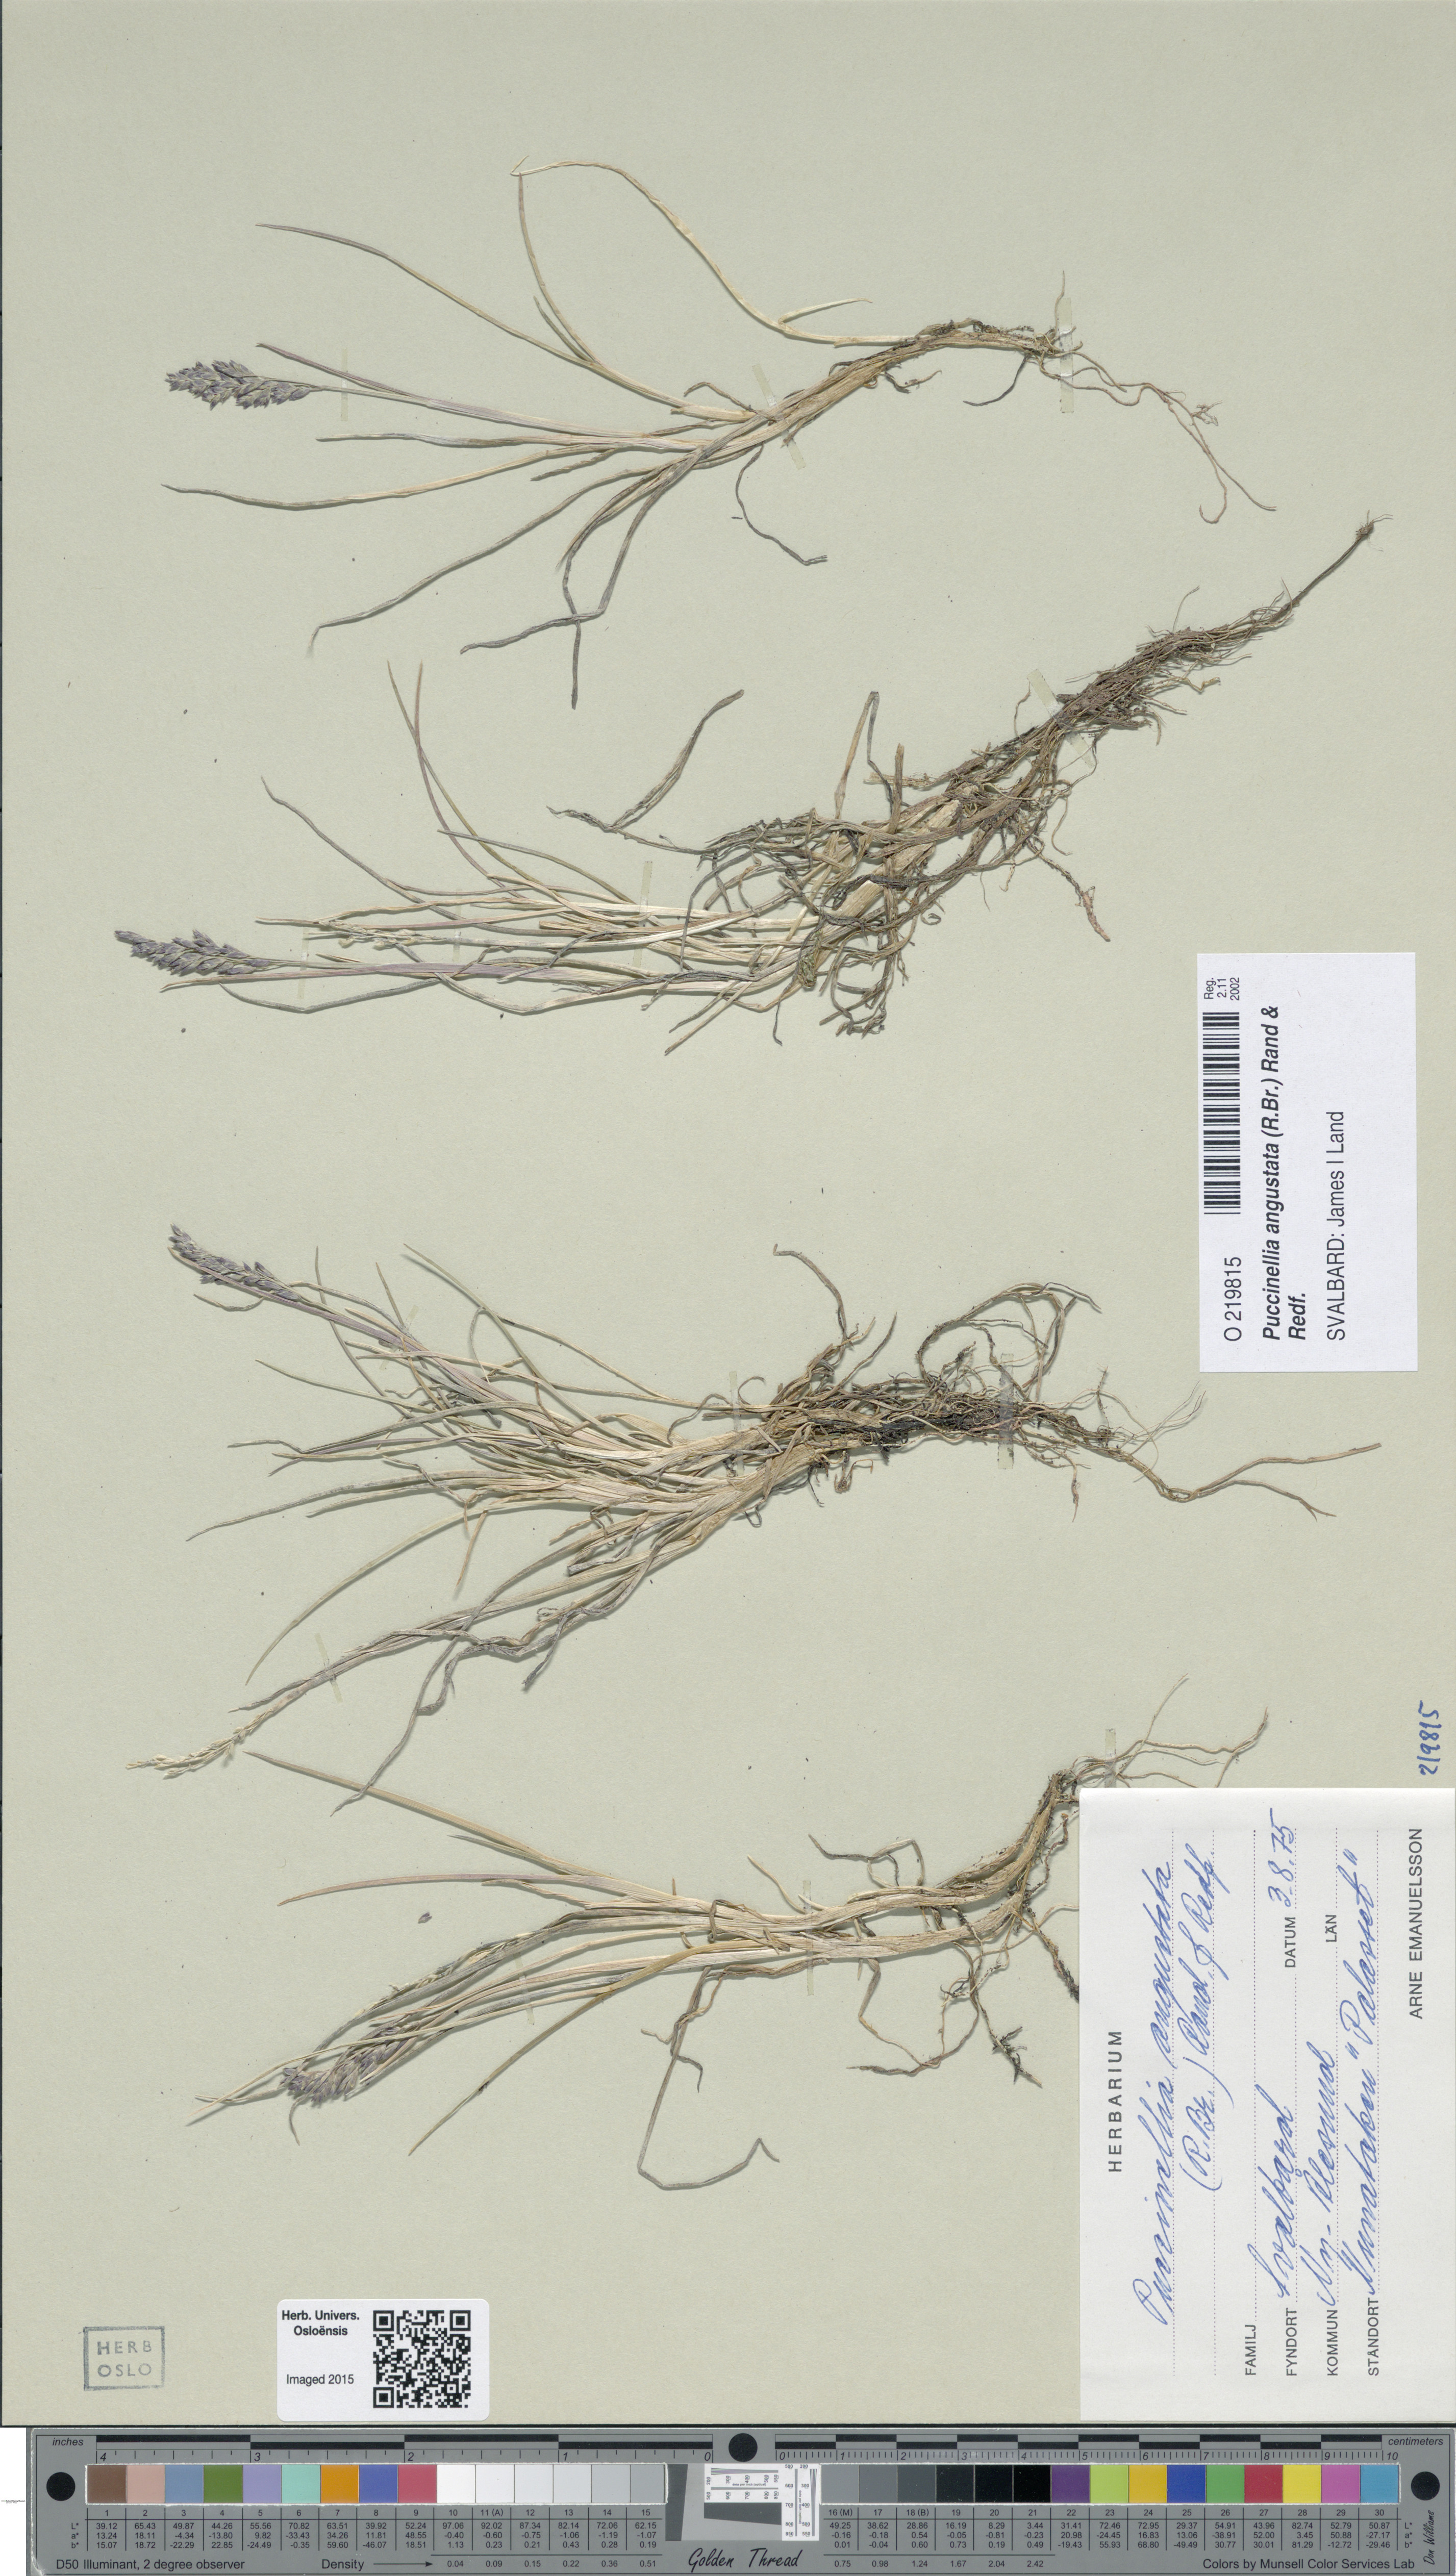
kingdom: Plantae
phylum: Tracheophyta
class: Liliopsida
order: Poales
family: Poaceae
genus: Puccinellia
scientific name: Puccinellia angustata
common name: Narrow alkaligrass
